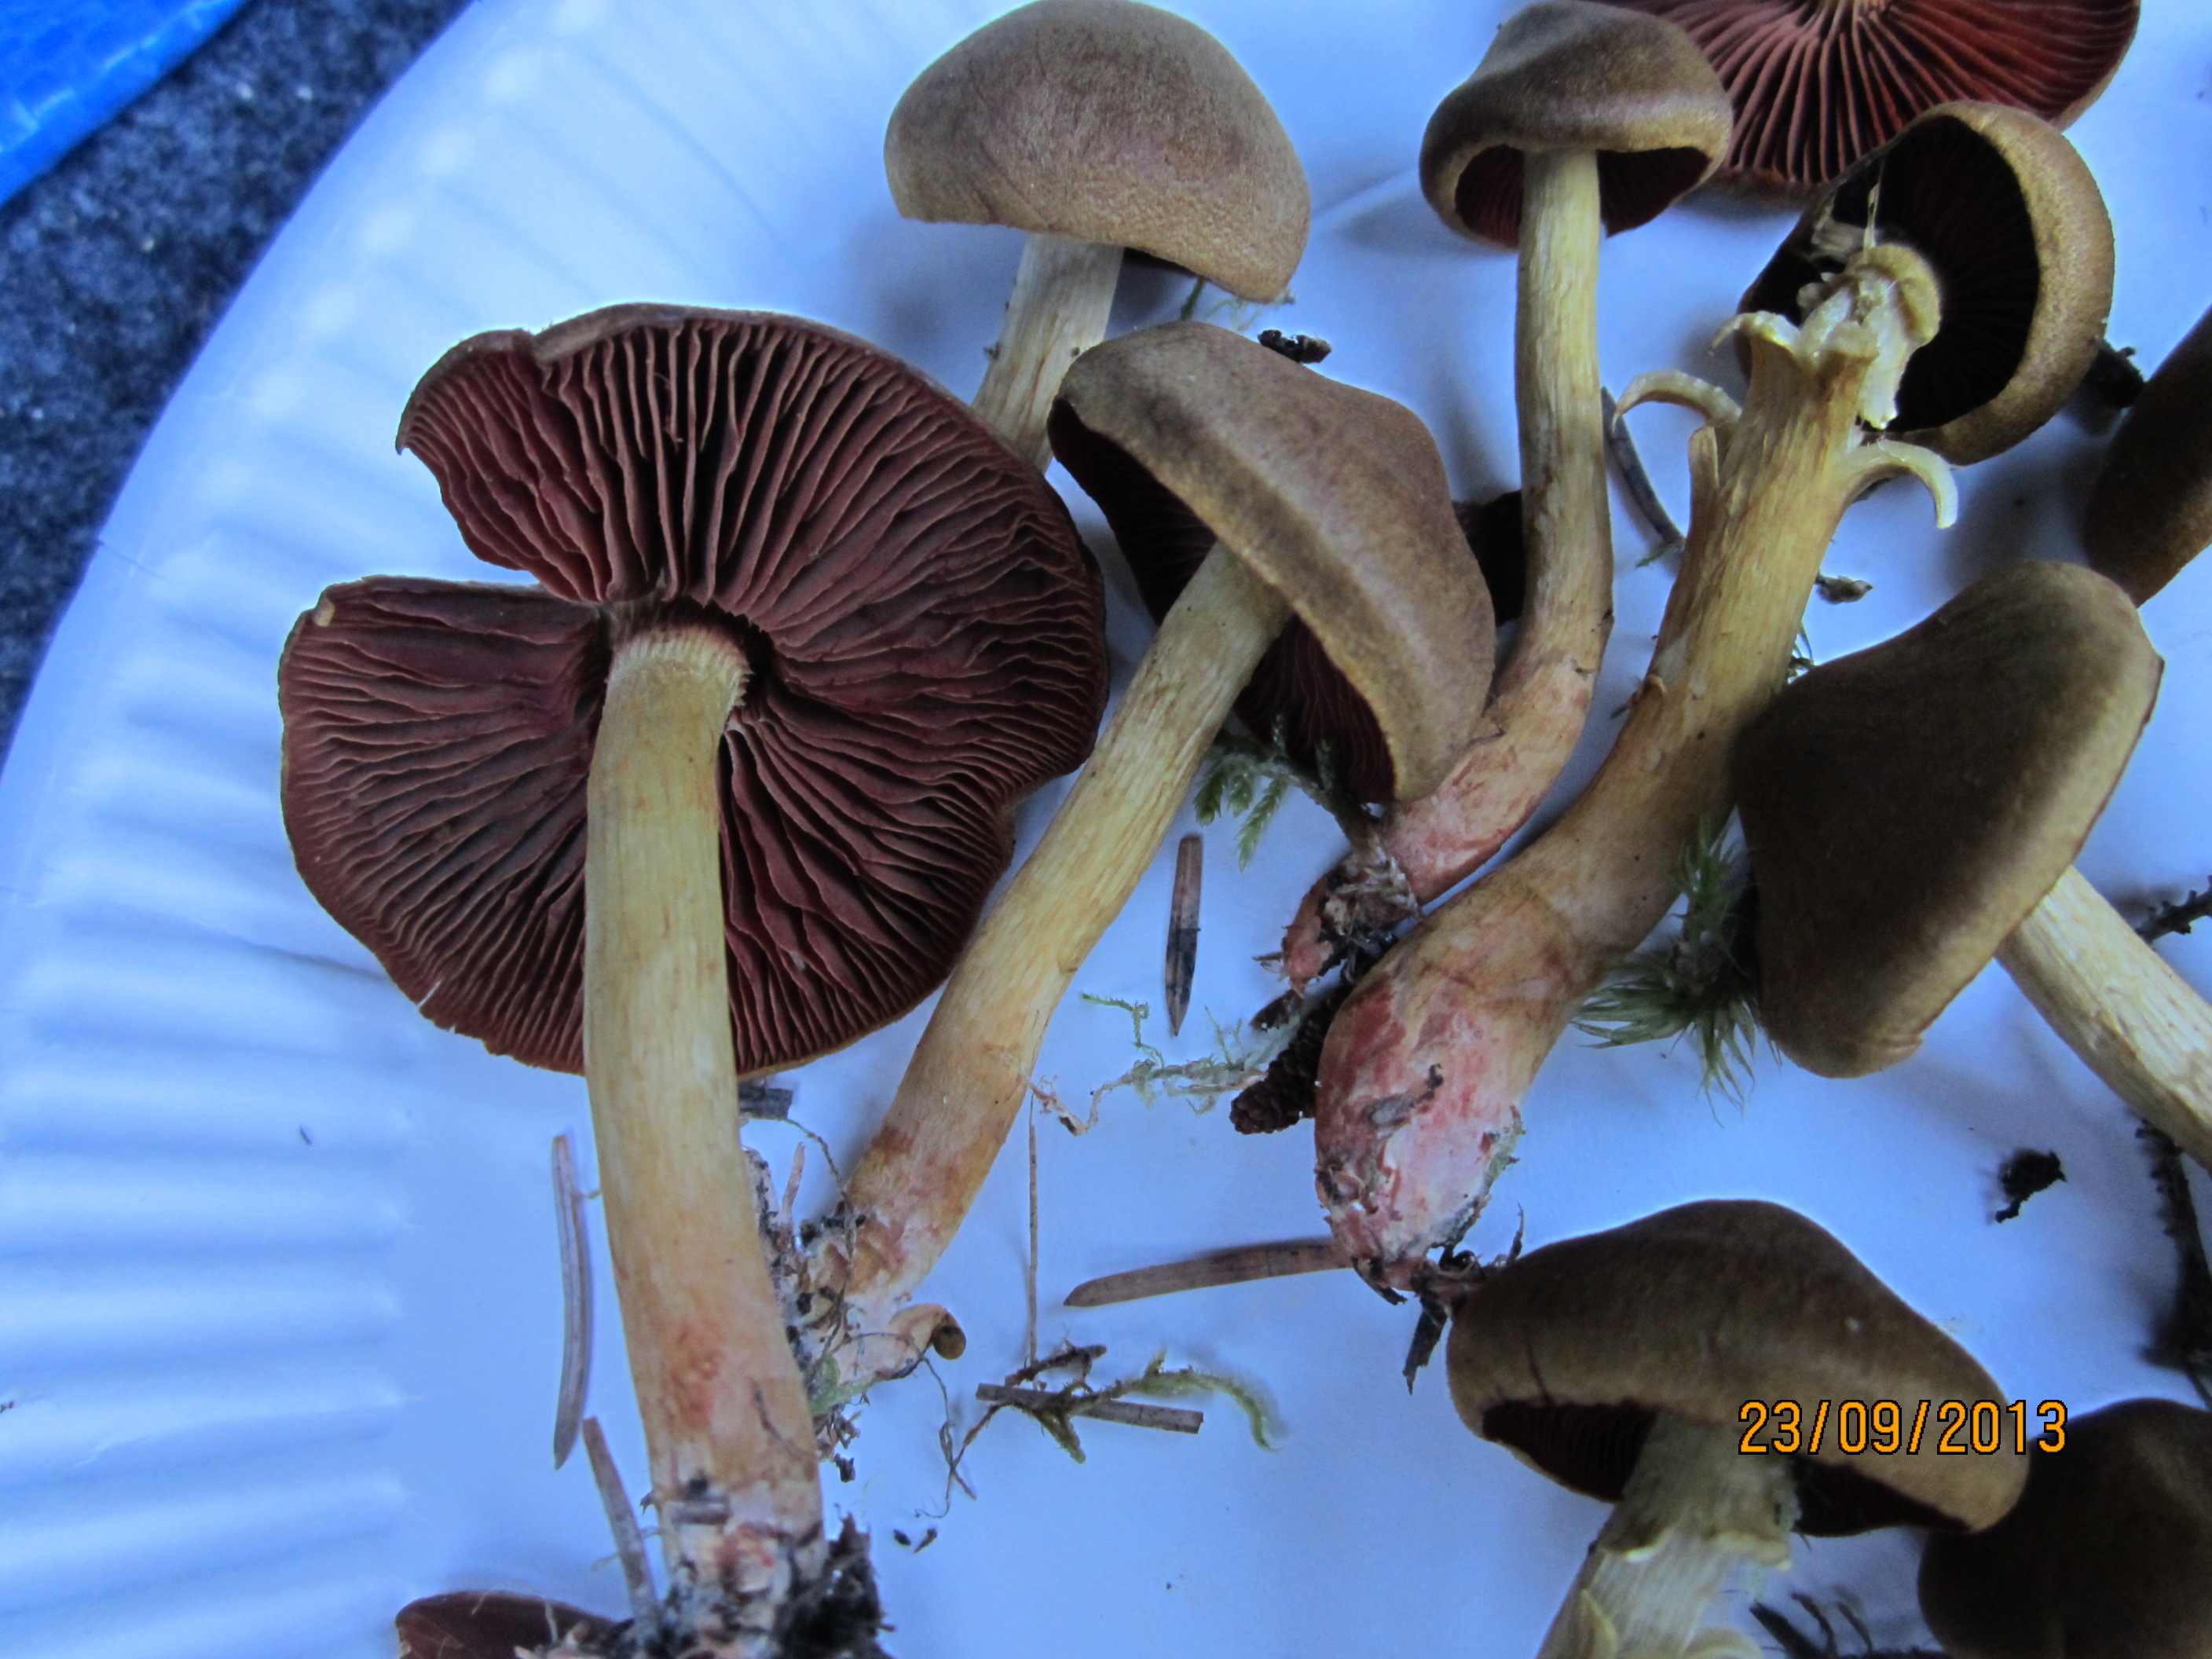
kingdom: Fungi
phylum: Basidiomycota
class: Agaricomycetes
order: Agaricales
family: Cortinariaceae
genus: Cortinarius
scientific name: Cortinarius
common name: cinnoberbladet slørhat
